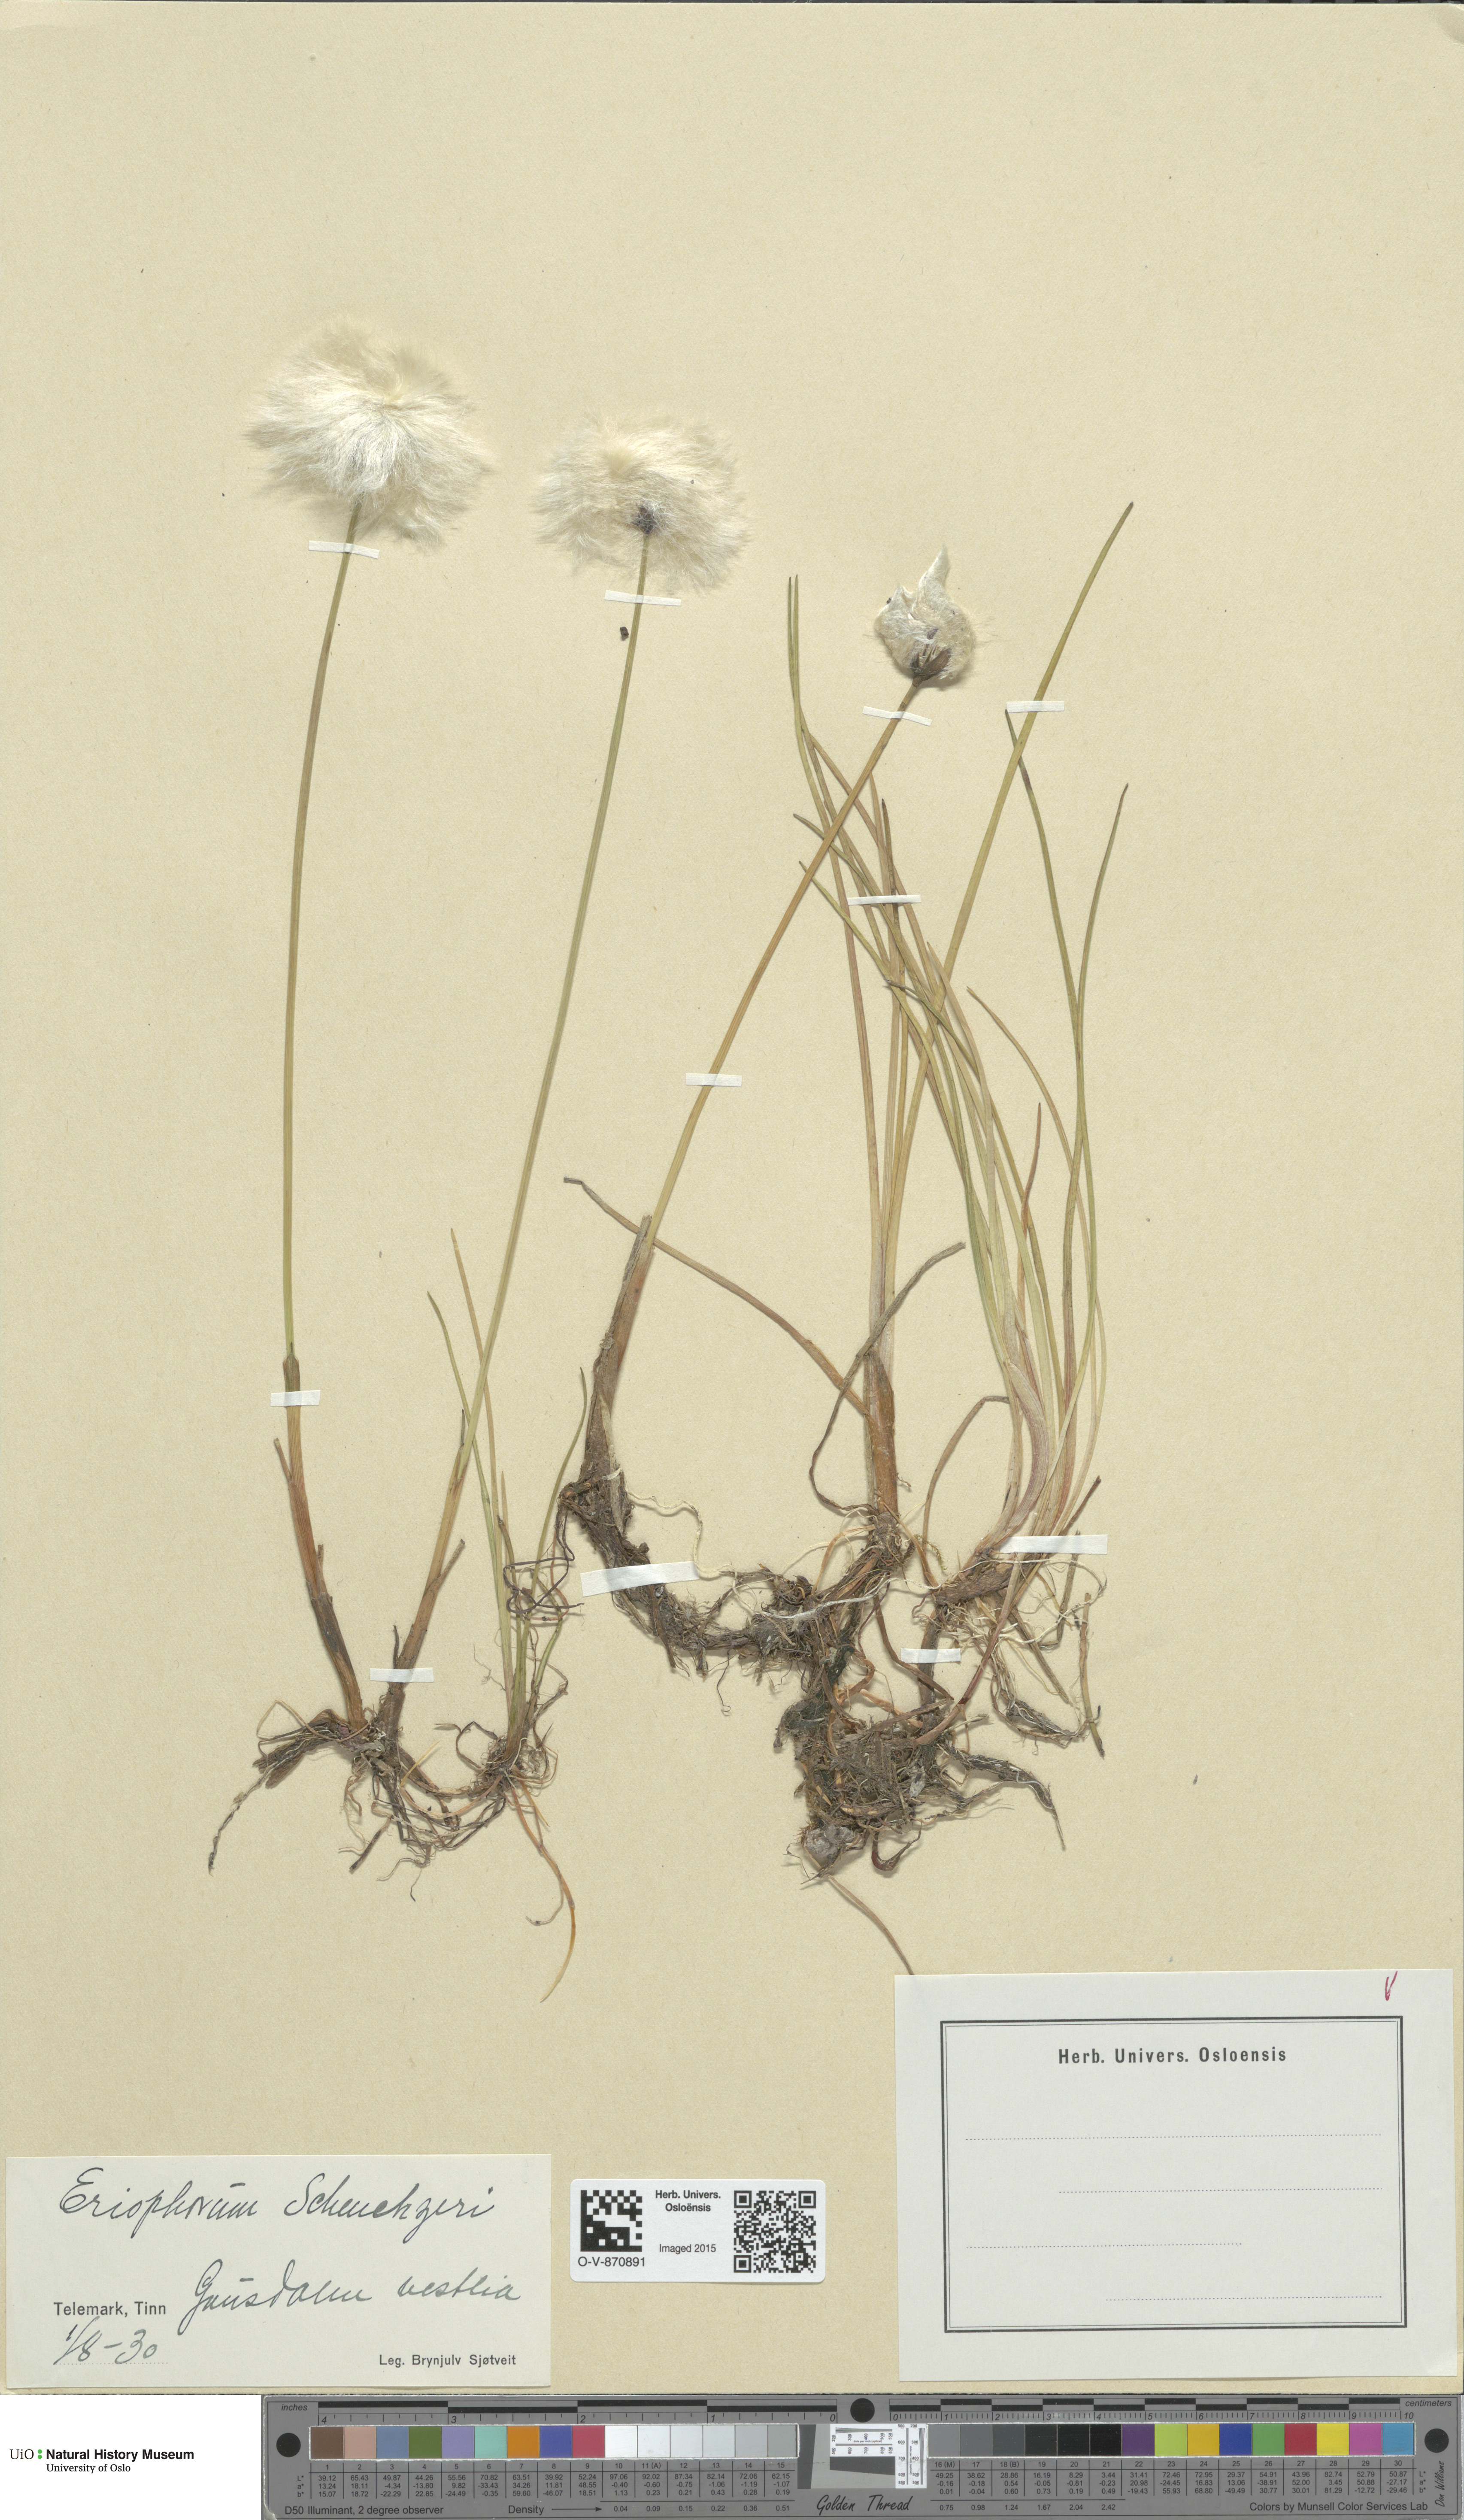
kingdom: Plantae
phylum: Tracheophyta
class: Liliopsida
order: Poales
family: Cyperaceae
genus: Eriophorum
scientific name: Eriophorum scheuchzeri
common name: Scheuchzer's cottongrass
